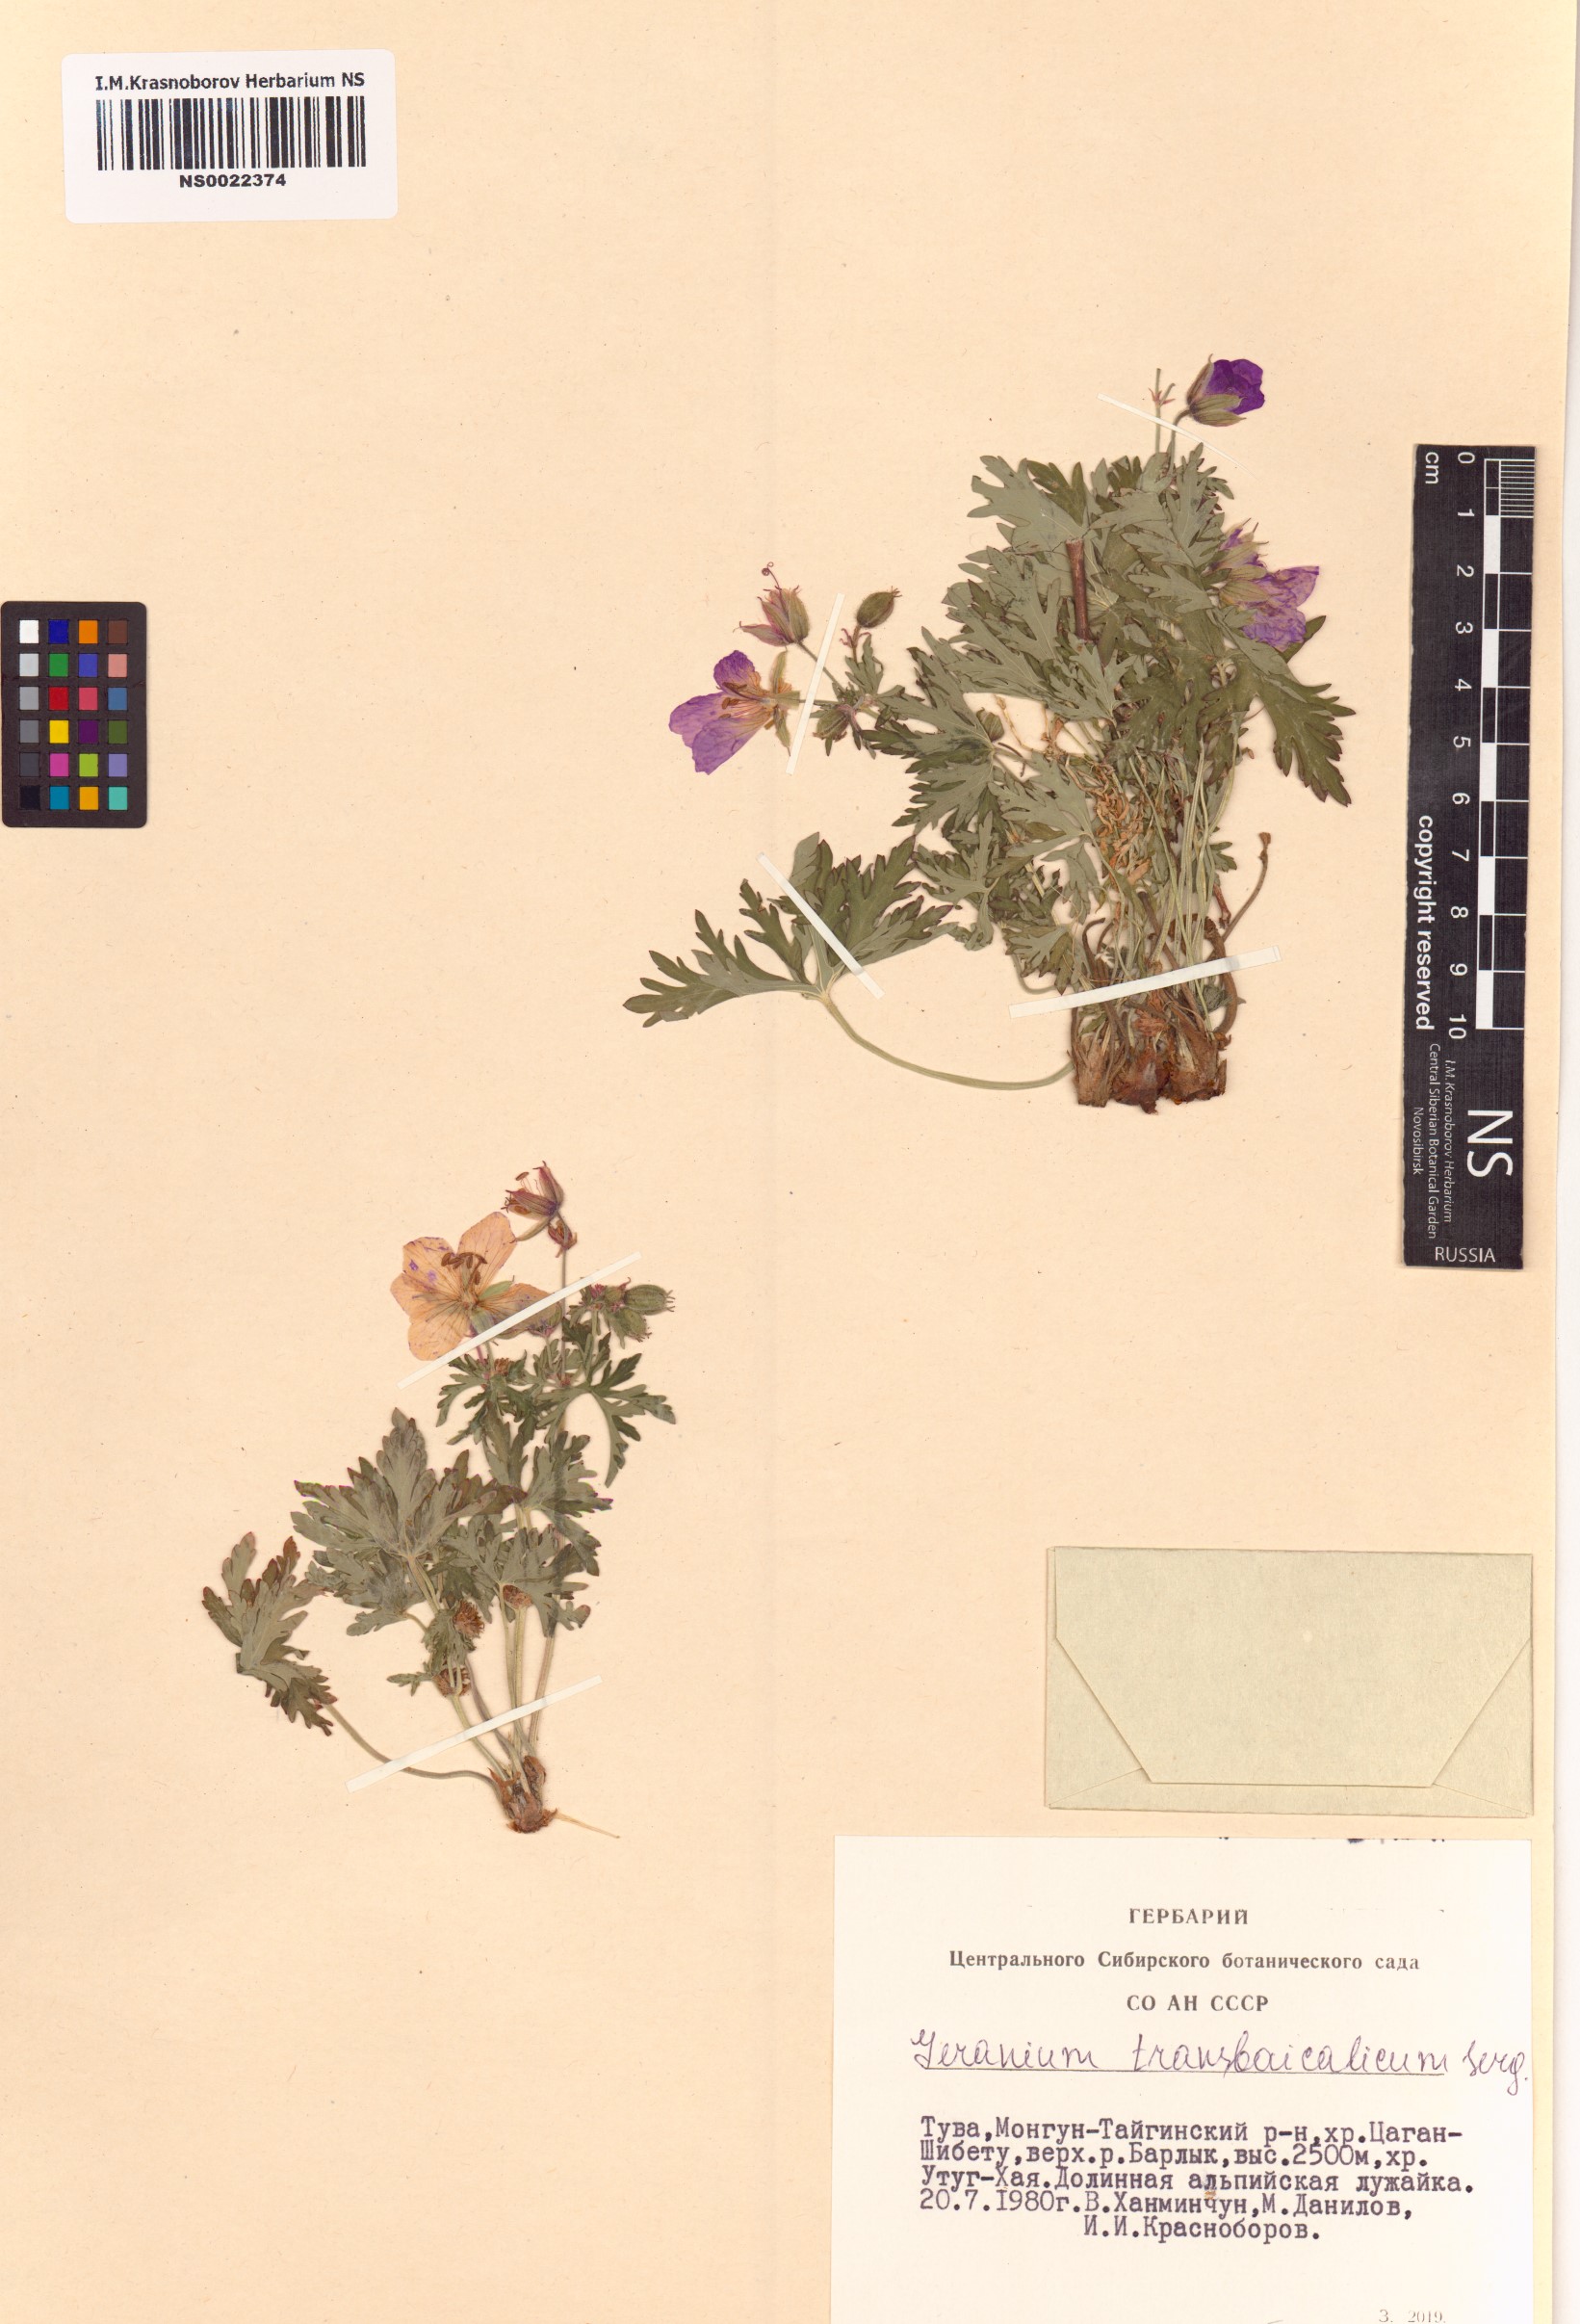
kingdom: Plantae
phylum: Tracheophyta
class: Magnoliopsida
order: Geraniales
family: Geraniaceae
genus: Geranium
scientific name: Geranium pratense
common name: Meadow crane's-bill
